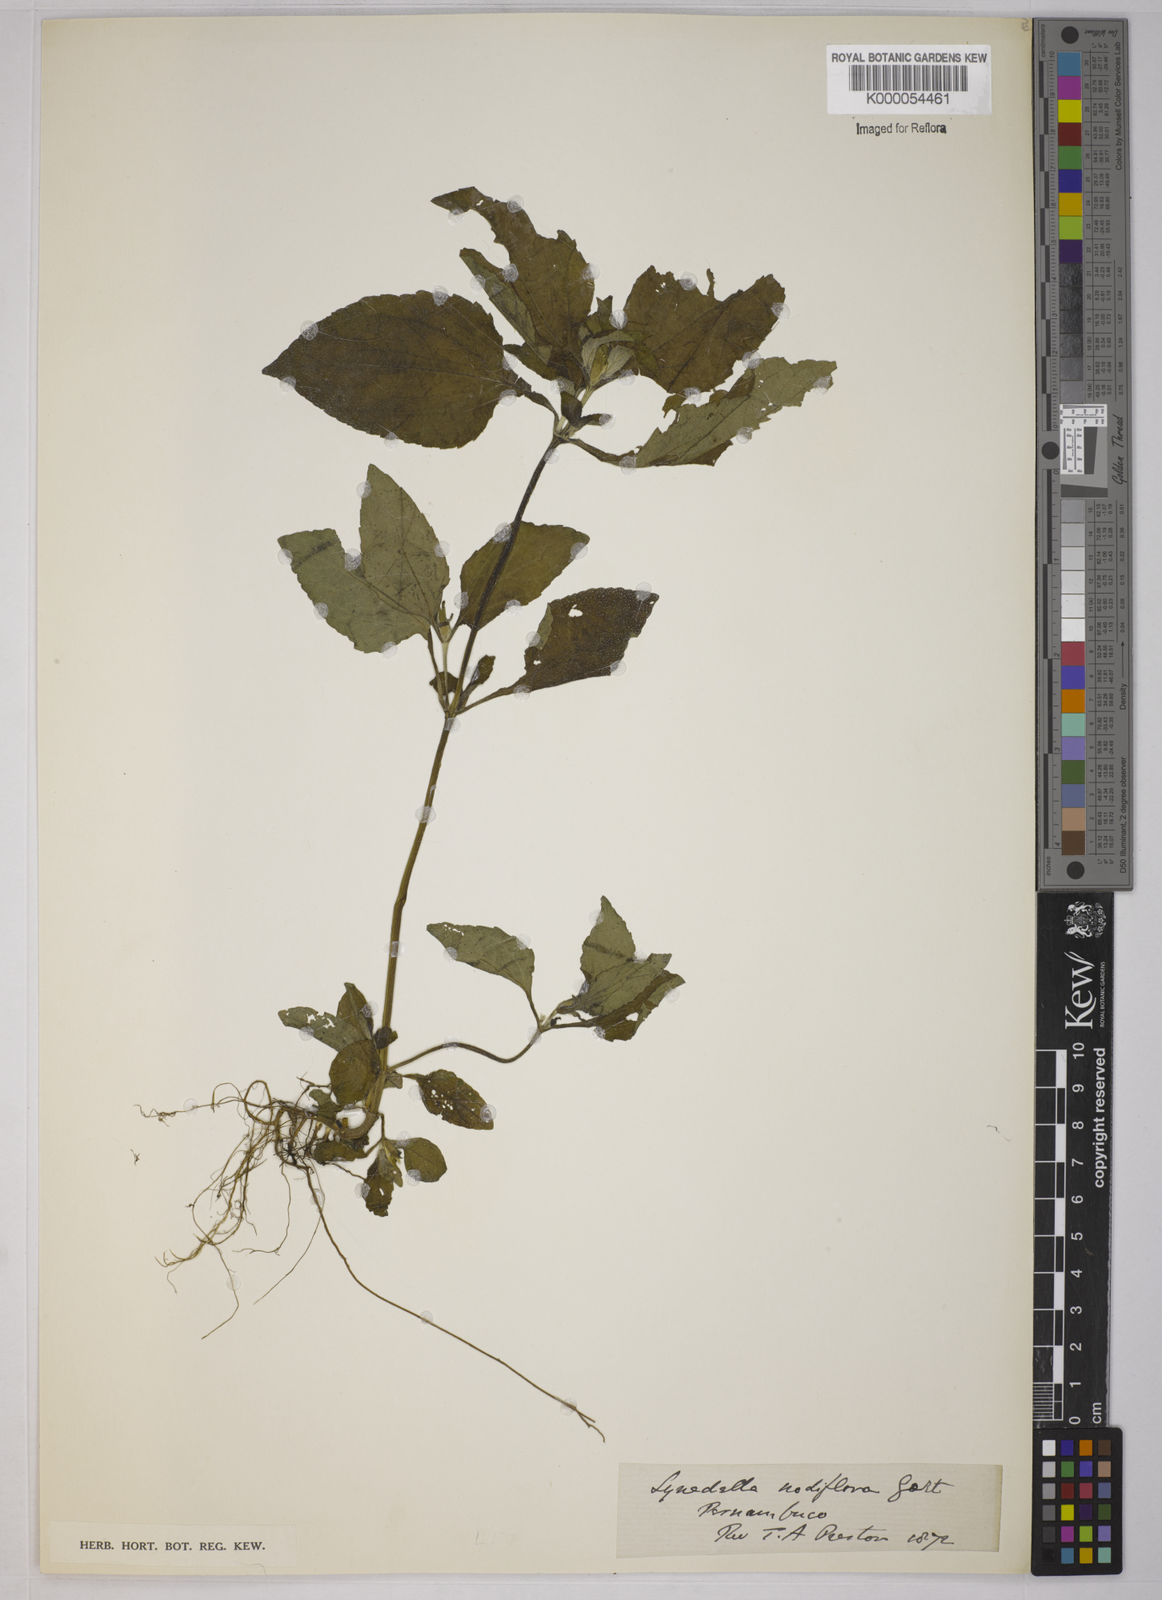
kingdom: Plantae
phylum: Tracheophyta
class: Magnoliopsida
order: Asterales
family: Asteraceae
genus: Synedrella
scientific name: Synedrella nodiflora
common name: Nodeweed
